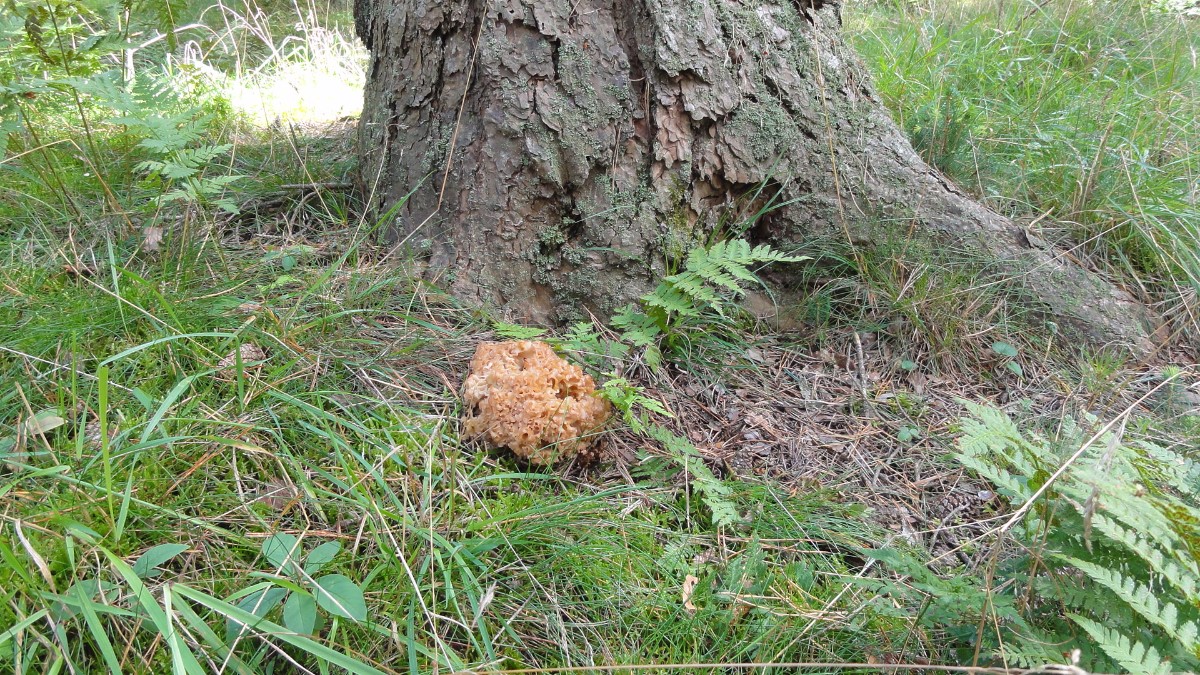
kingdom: Fungi
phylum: Basidiomycota
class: Agaricomycetes
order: Polyporales
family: Sparassidaceae
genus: Sparassis
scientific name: Sparassis crispa
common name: kruset blomkålssvamp
